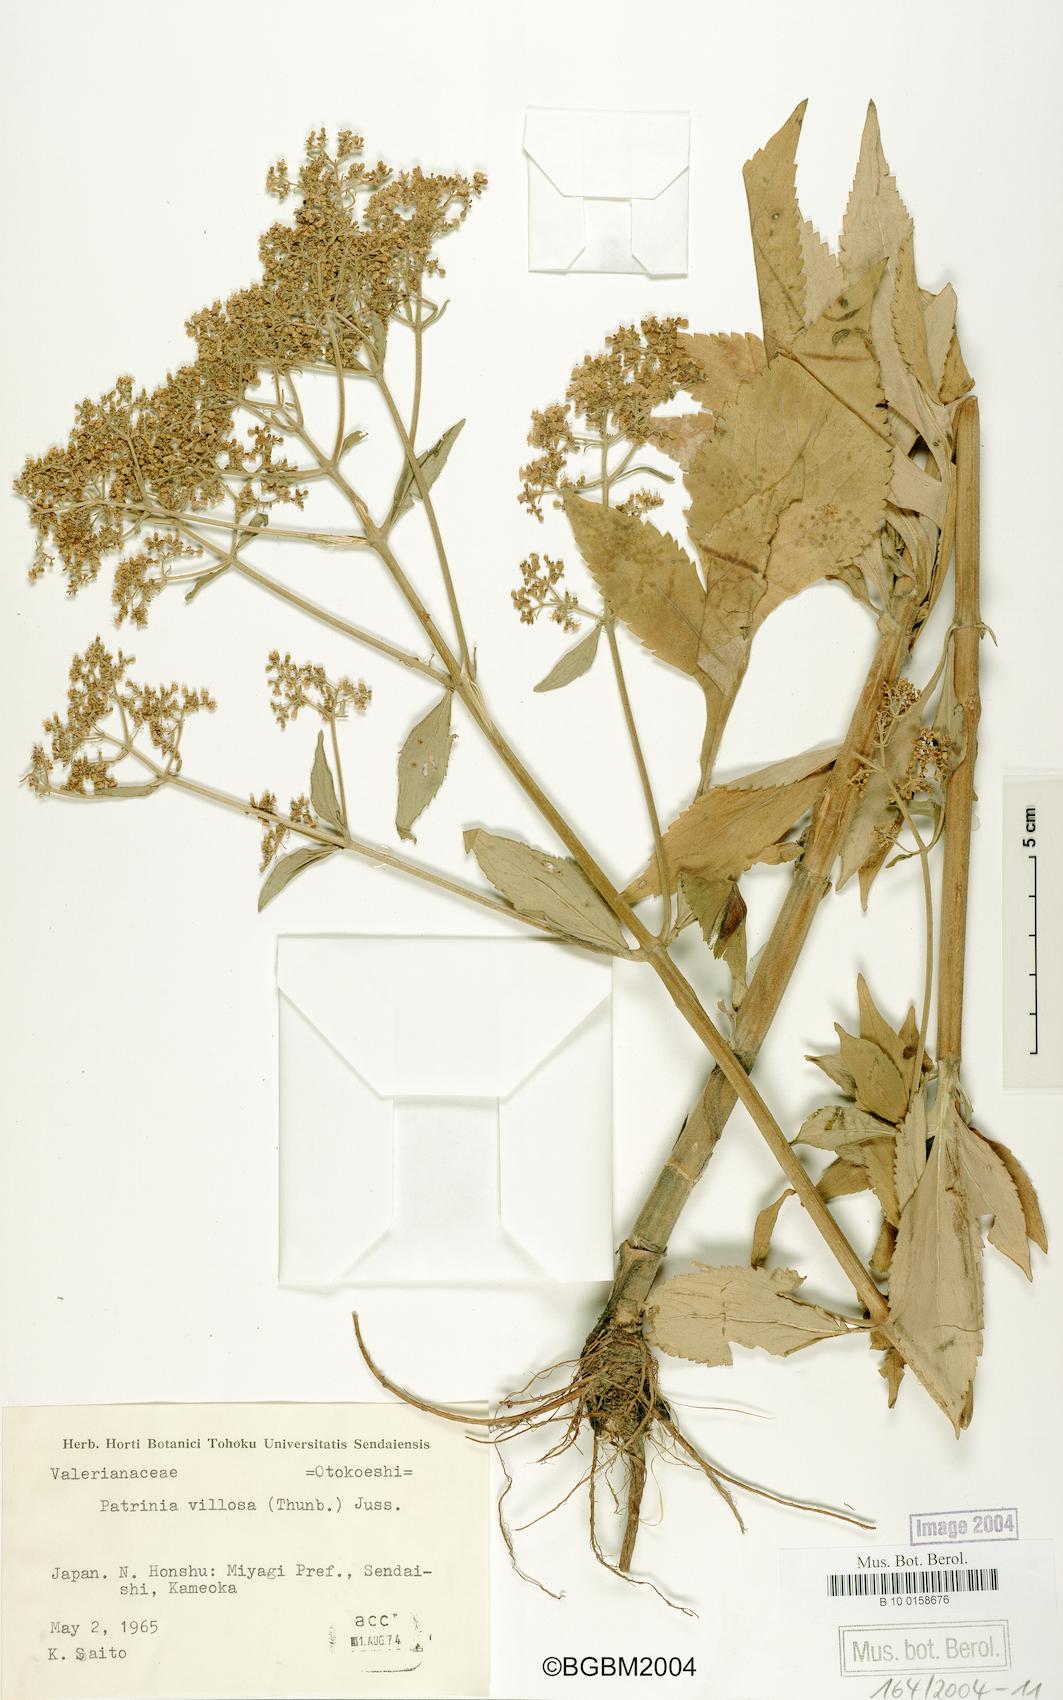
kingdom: Plantae
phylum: Tracheophyta
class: Magnoliopsida
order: Dipsacales
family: Caprifoliaceae
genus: Patrinia
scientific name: Patrinia villosa
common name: Patrinia
